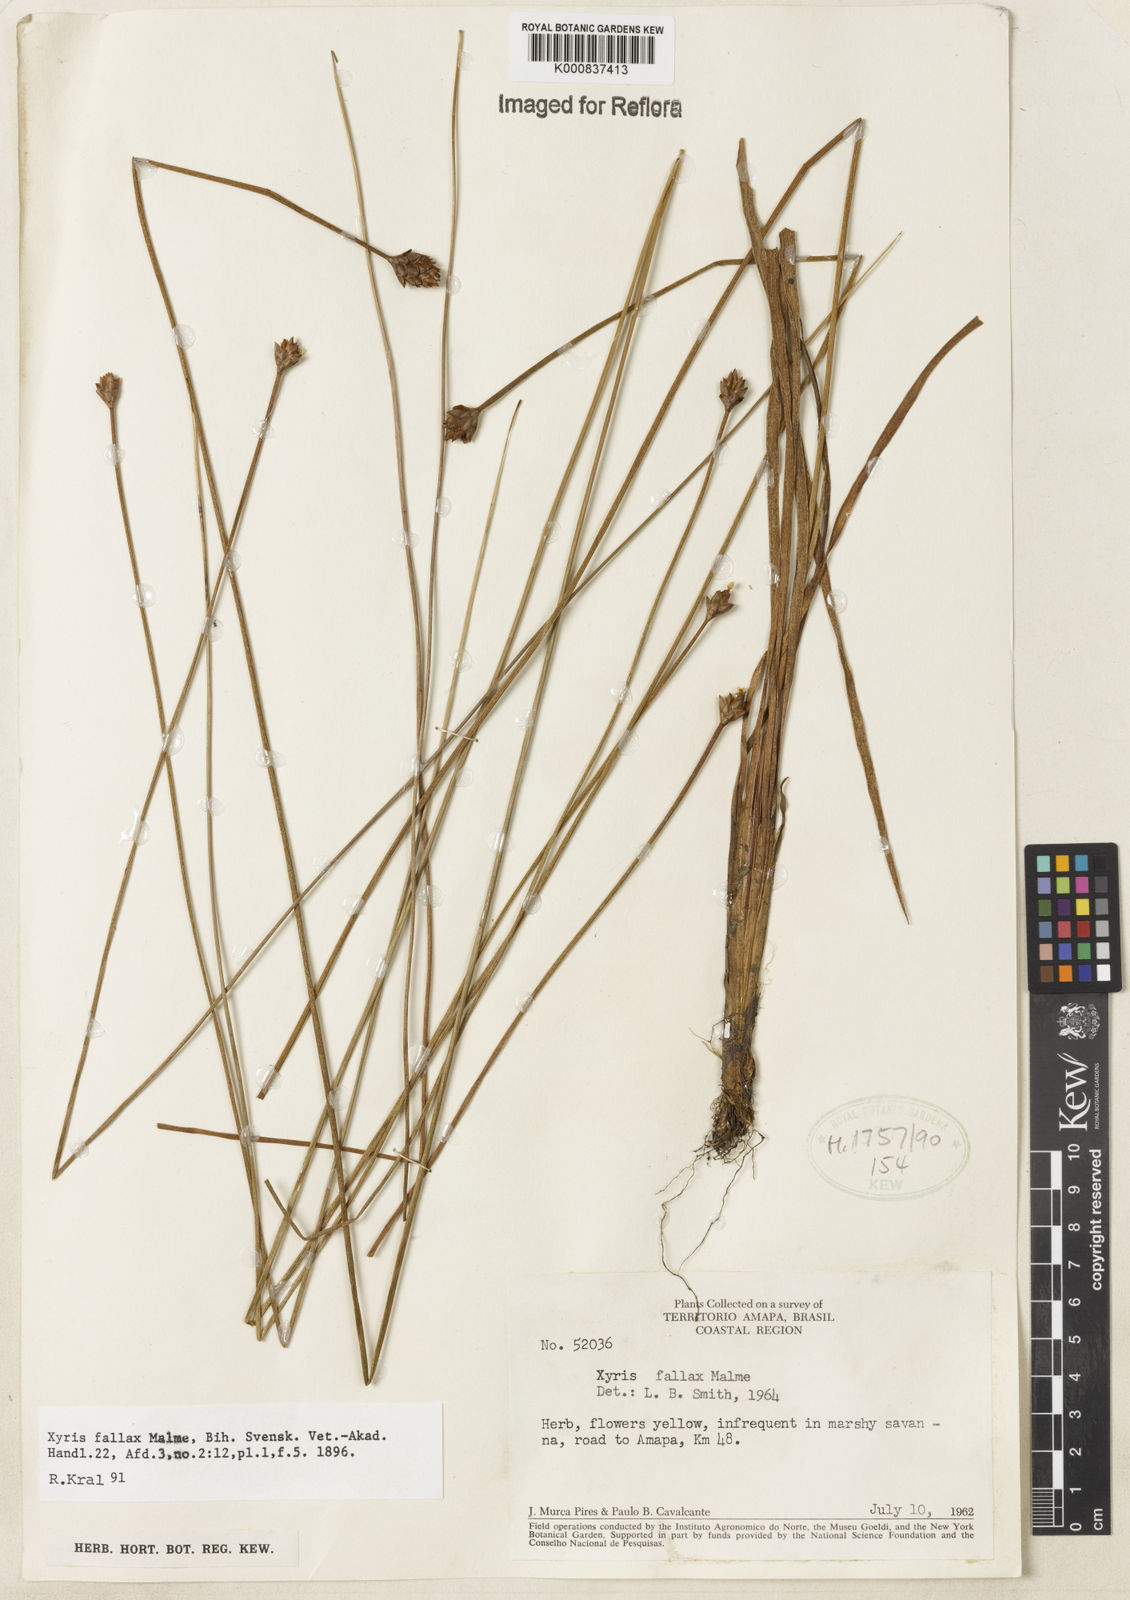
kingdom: Plantae
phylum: Tracheophyta
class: Liliopsida
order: Poales
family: Xyridaceae
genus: Xyris
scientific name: Xyris fallax
